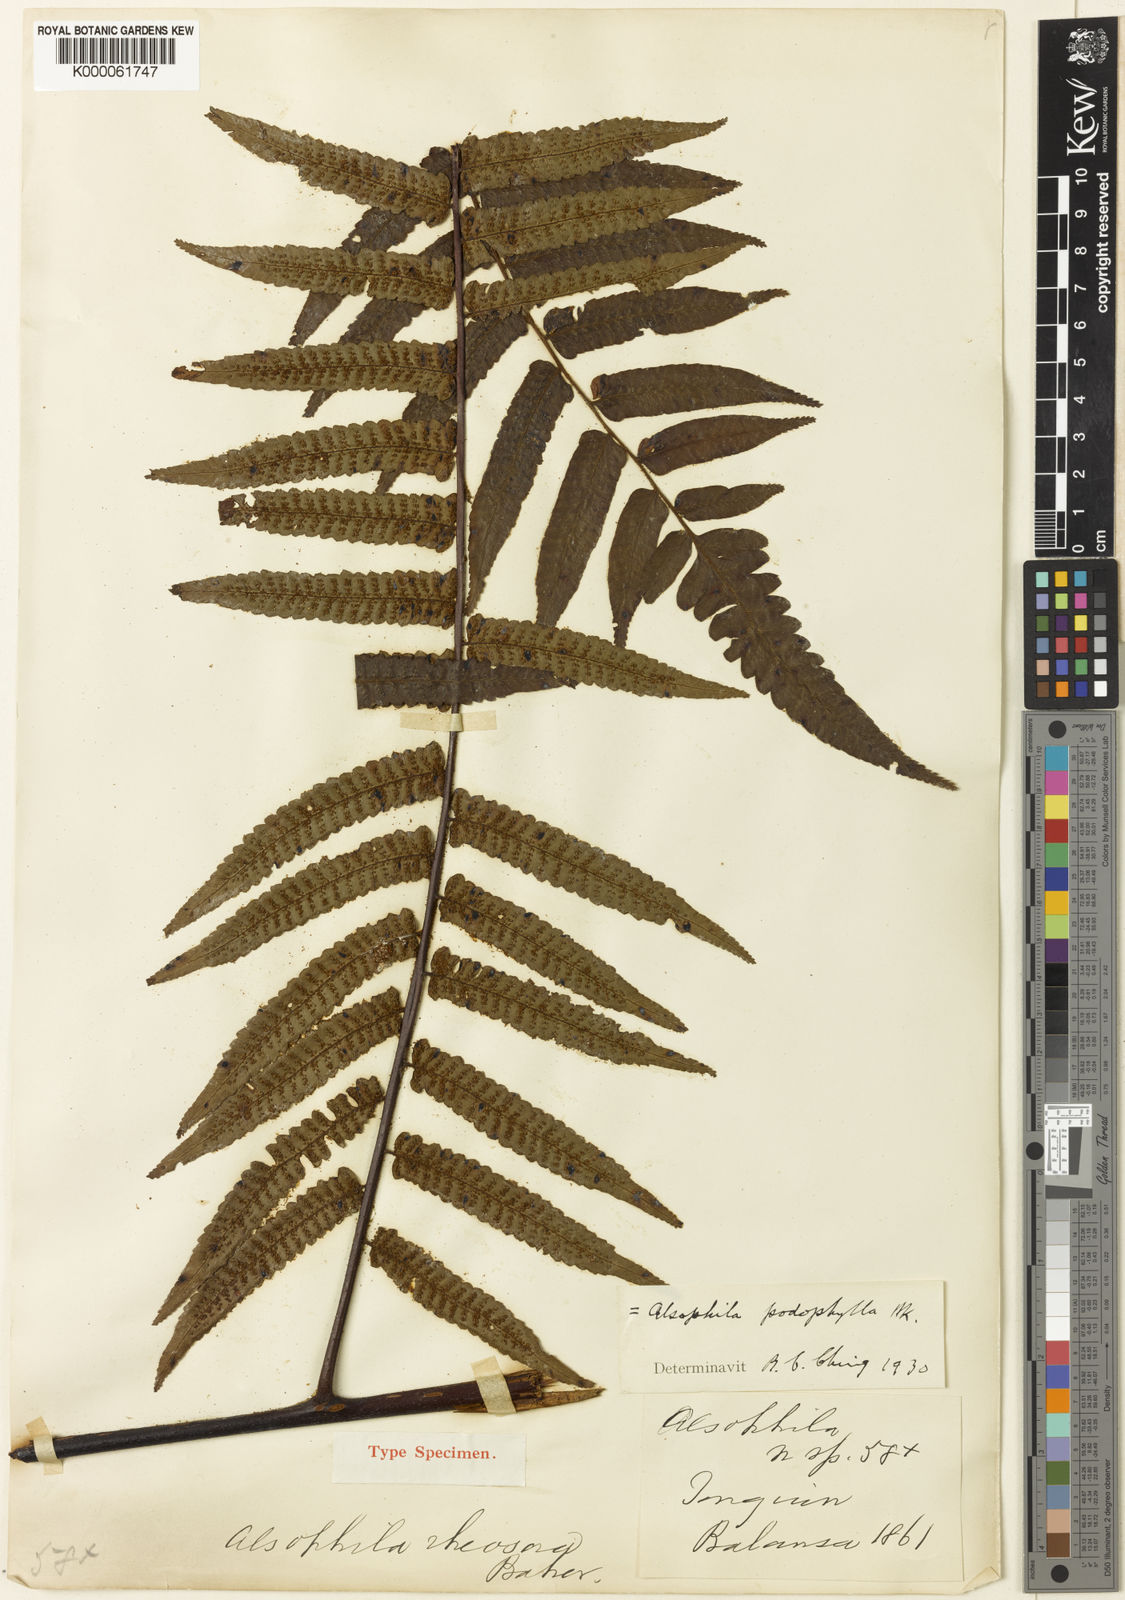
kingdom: Plantae
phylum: Tracheophyta
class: Polypodiopsida
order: Cyatheales
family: Cyatheaceae
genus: Gymnosphaera
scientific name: Gymnosphaera podophylla
